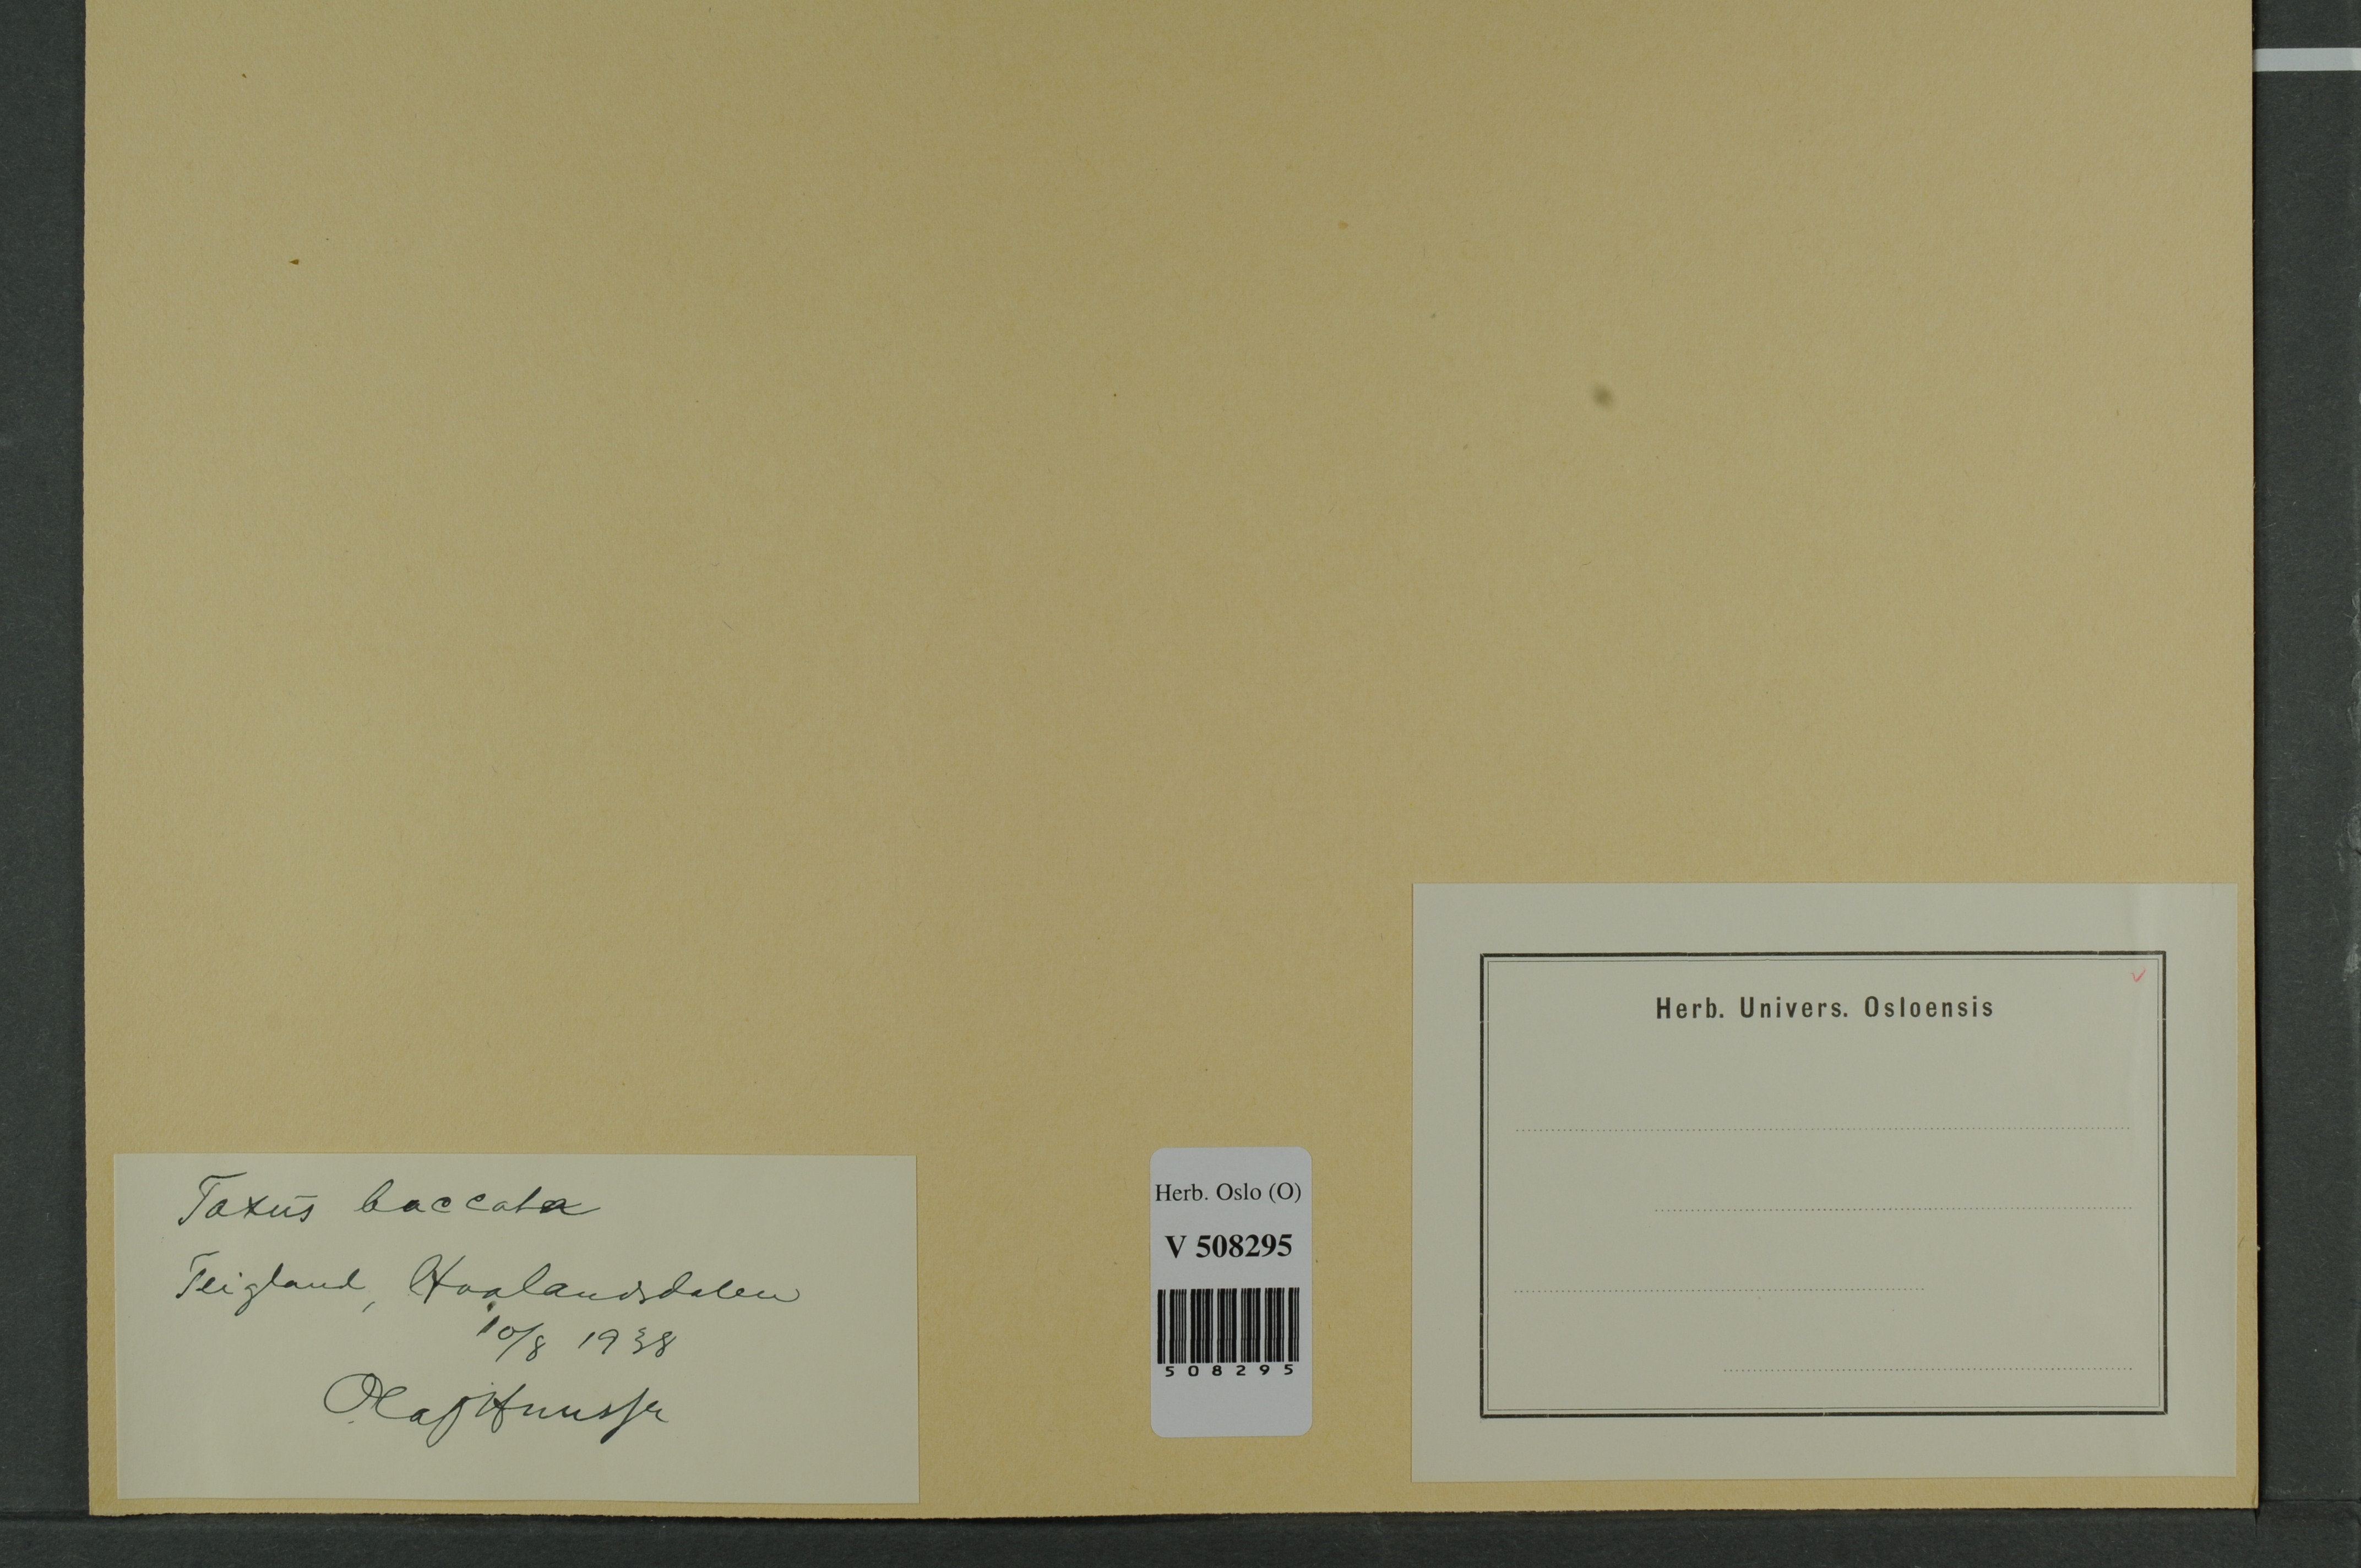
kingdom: Plantae
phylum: Tracheophyta
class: Pinopsida
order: Pinales
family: Taxaceae
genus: Taxus
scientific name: Taxus baccata
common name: Yew
